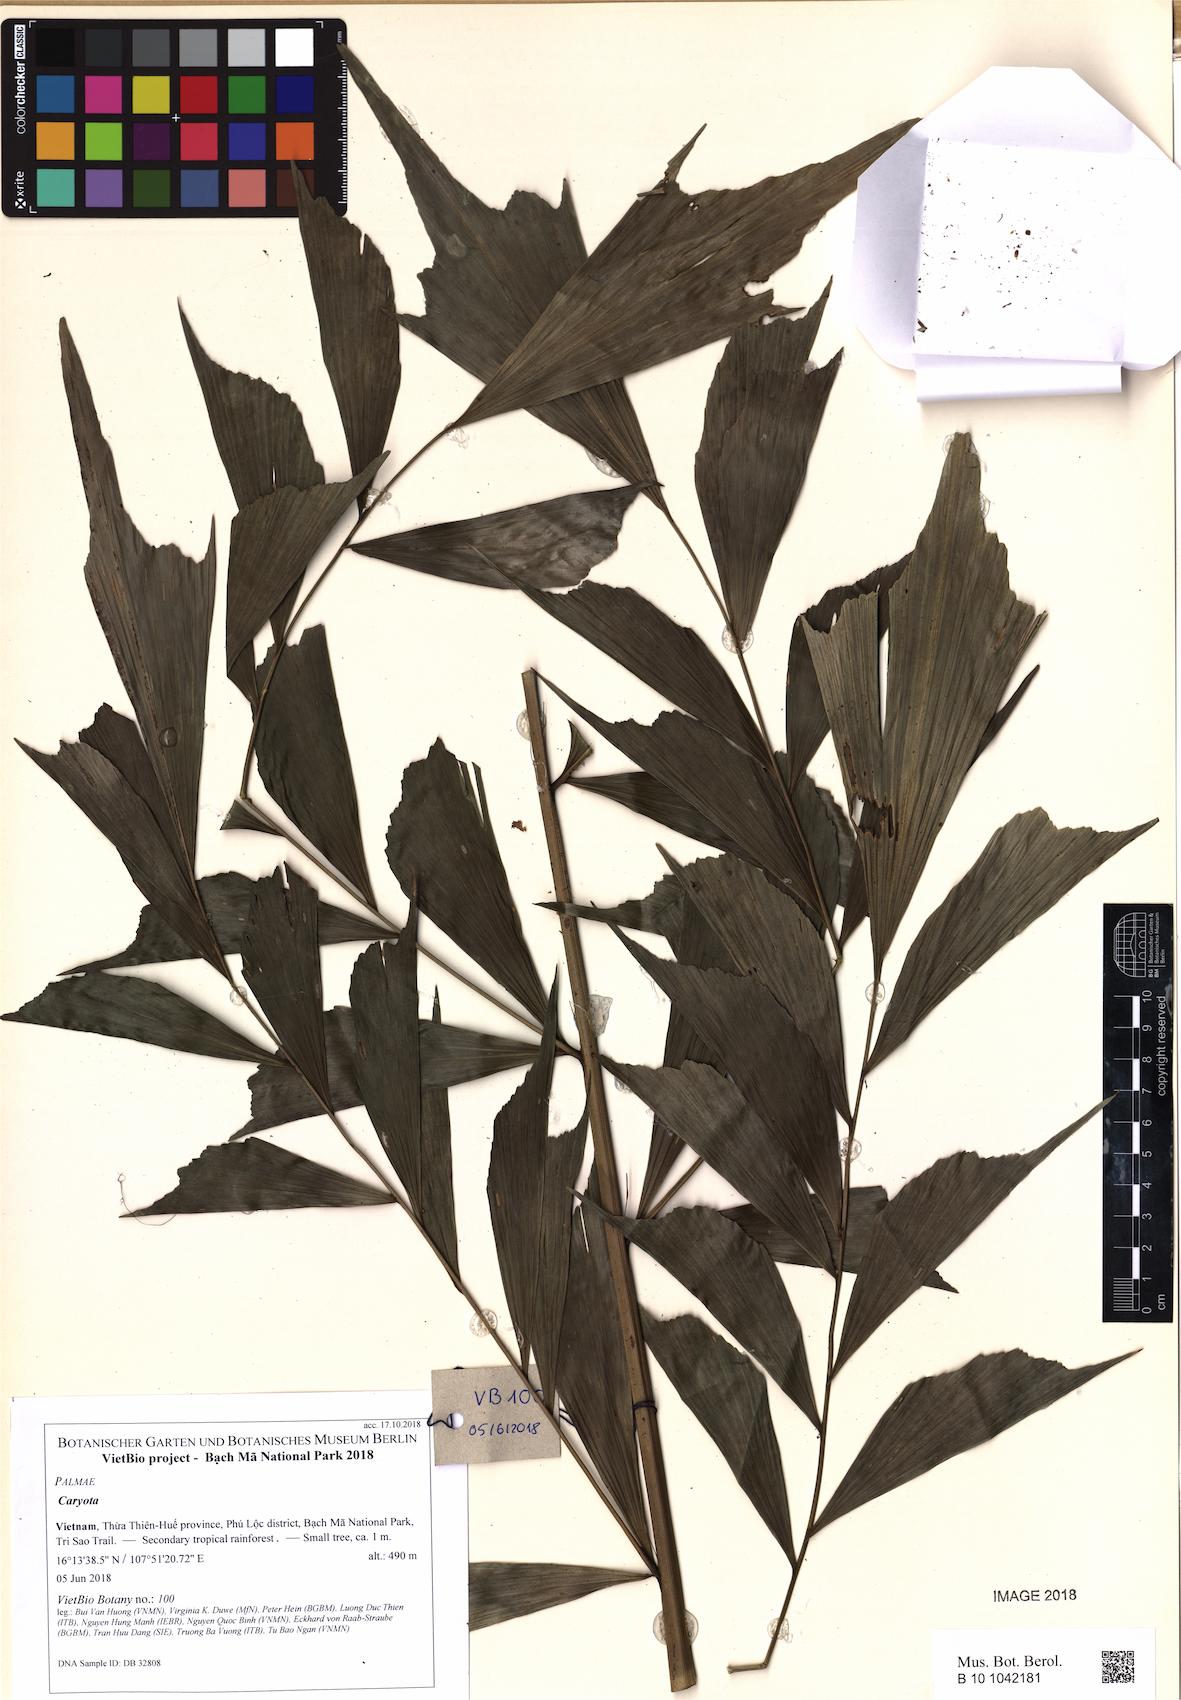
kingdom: Plantae
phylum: Tracheophyta
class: Liliopsida
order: Arecales
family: Arecaceae
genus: Caryota
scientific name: Caryota
